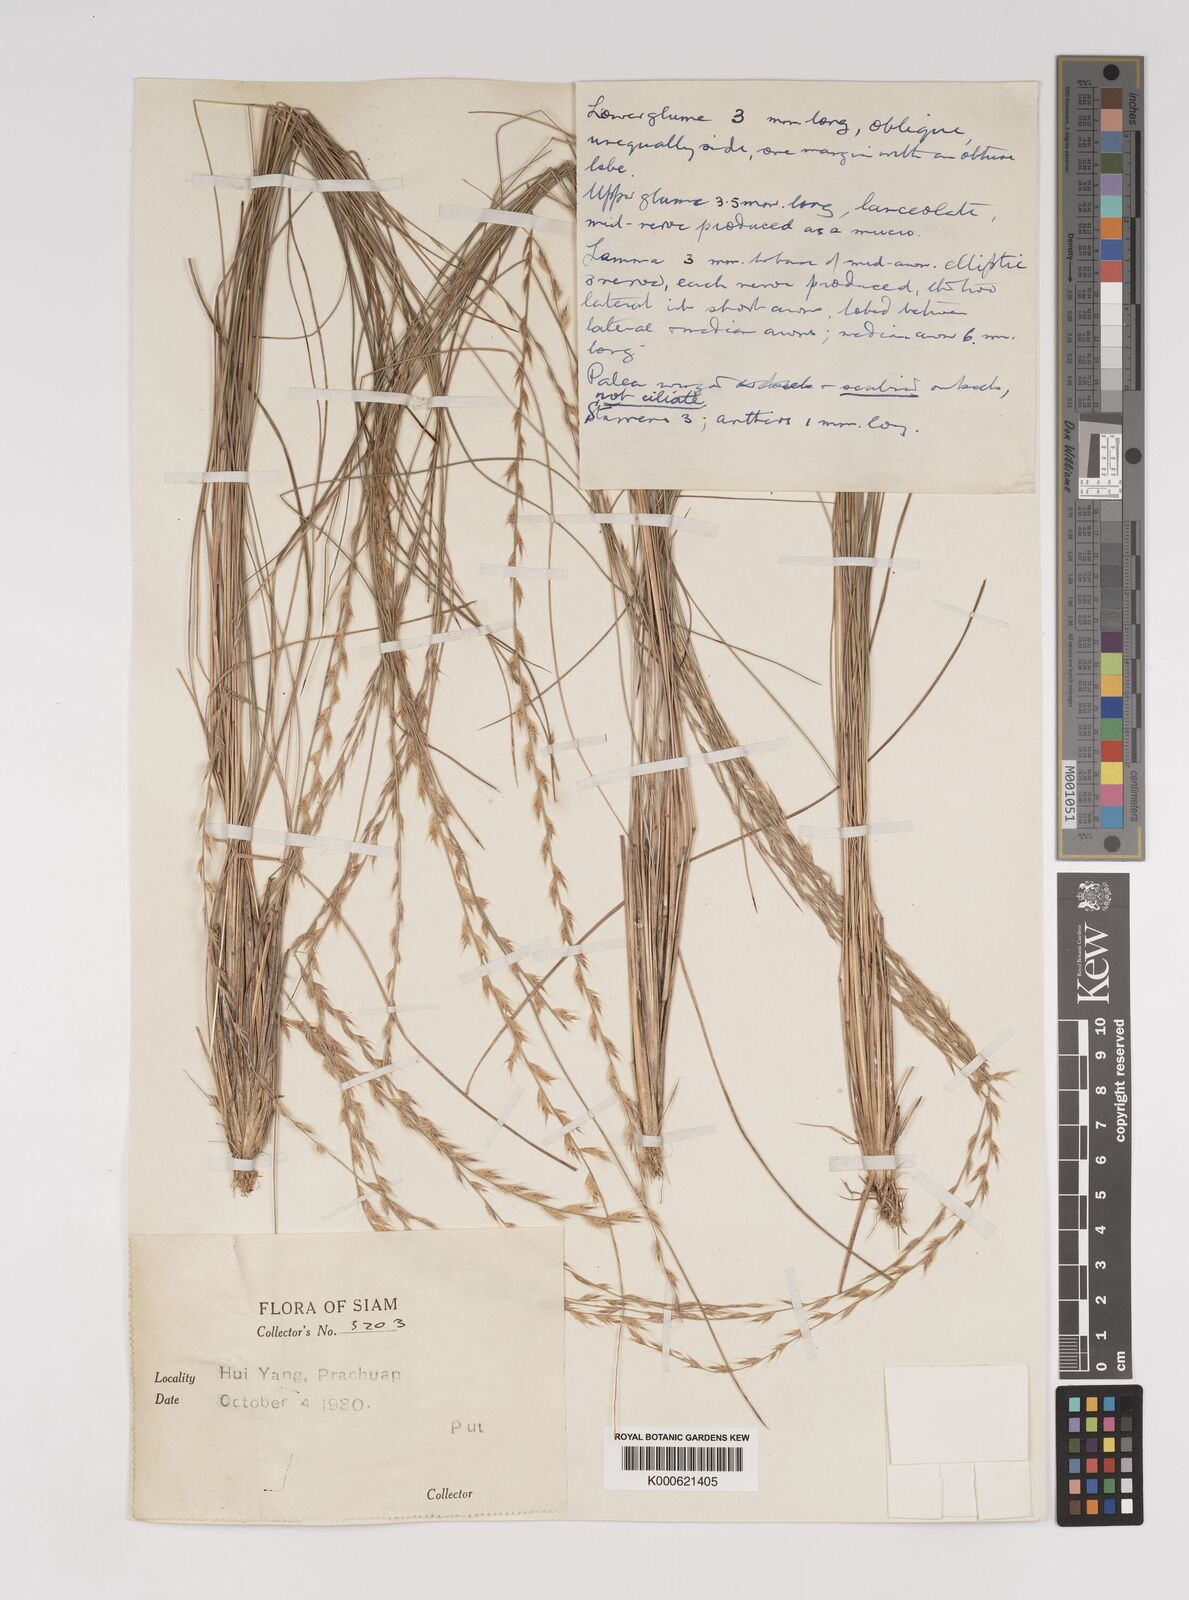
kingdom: Plantae
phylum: Tracheophyta
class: Liliopsida
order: Poales
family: Poaceae
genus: Tripogon
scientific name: Tripogon
